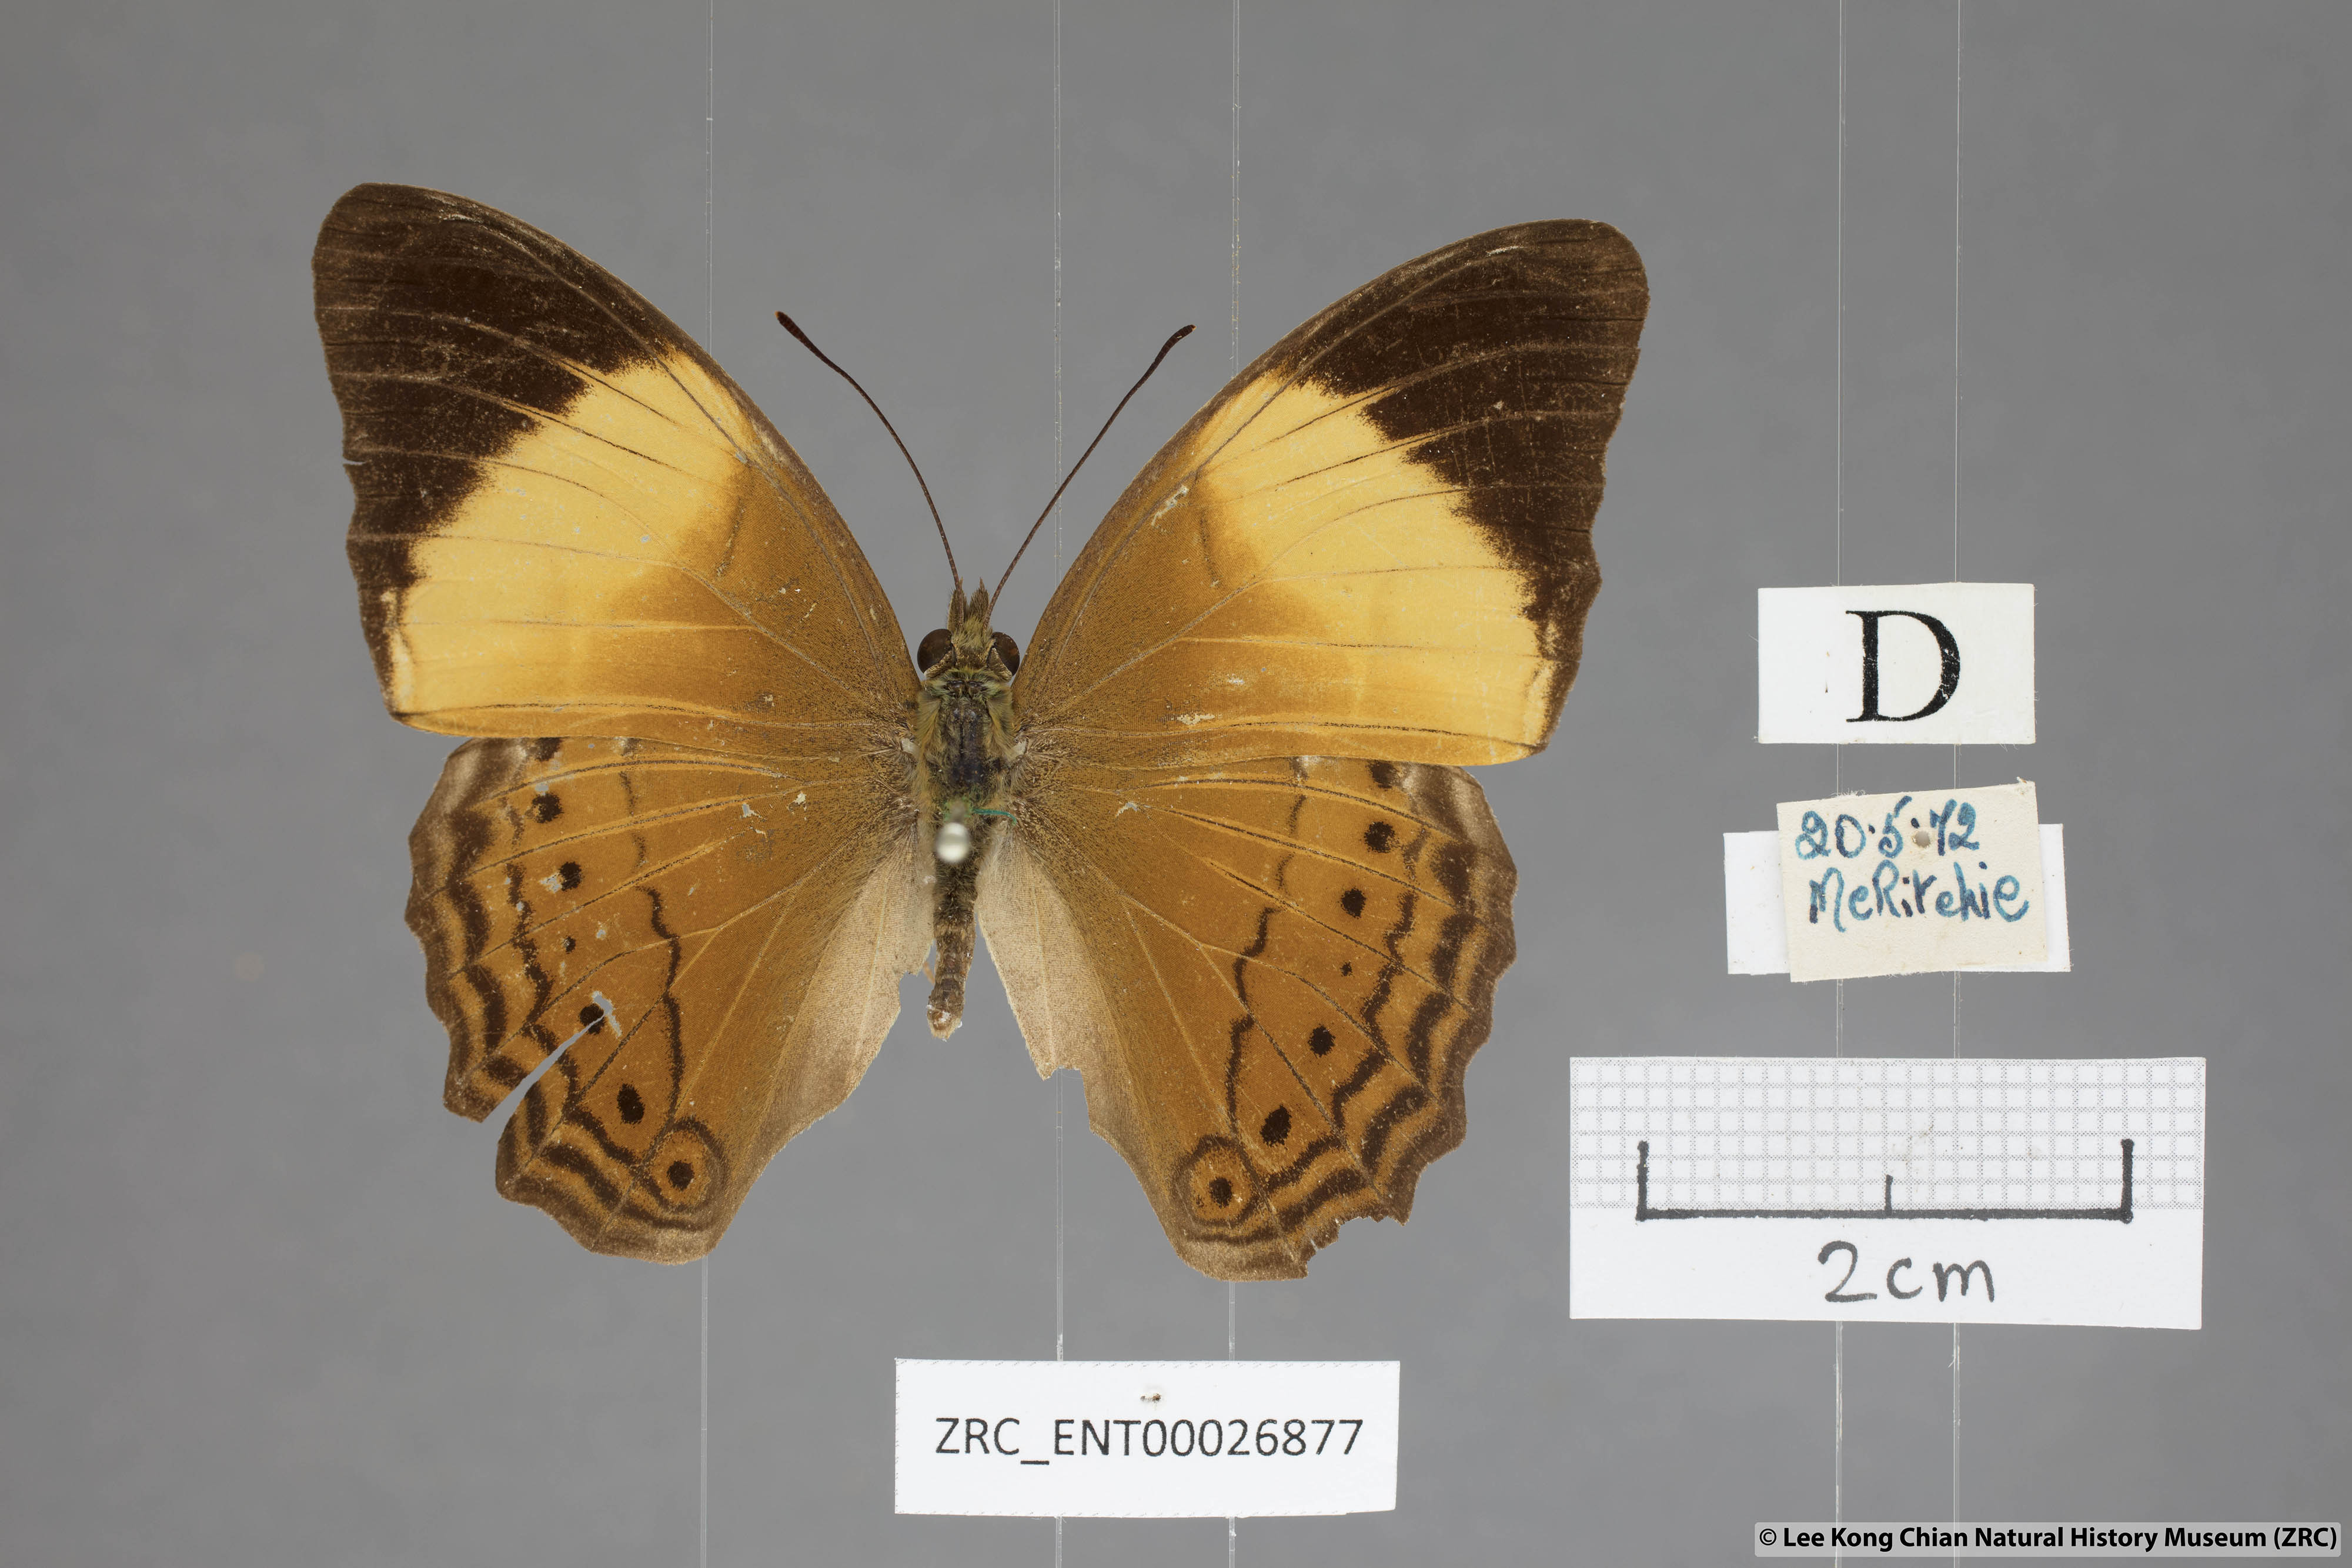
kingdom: Animalia
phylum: Arthropoda
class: Insecta
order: Lepidoptera
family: Nymphalidae
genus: Cirrochroa
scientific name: Cirrochroa orissa
